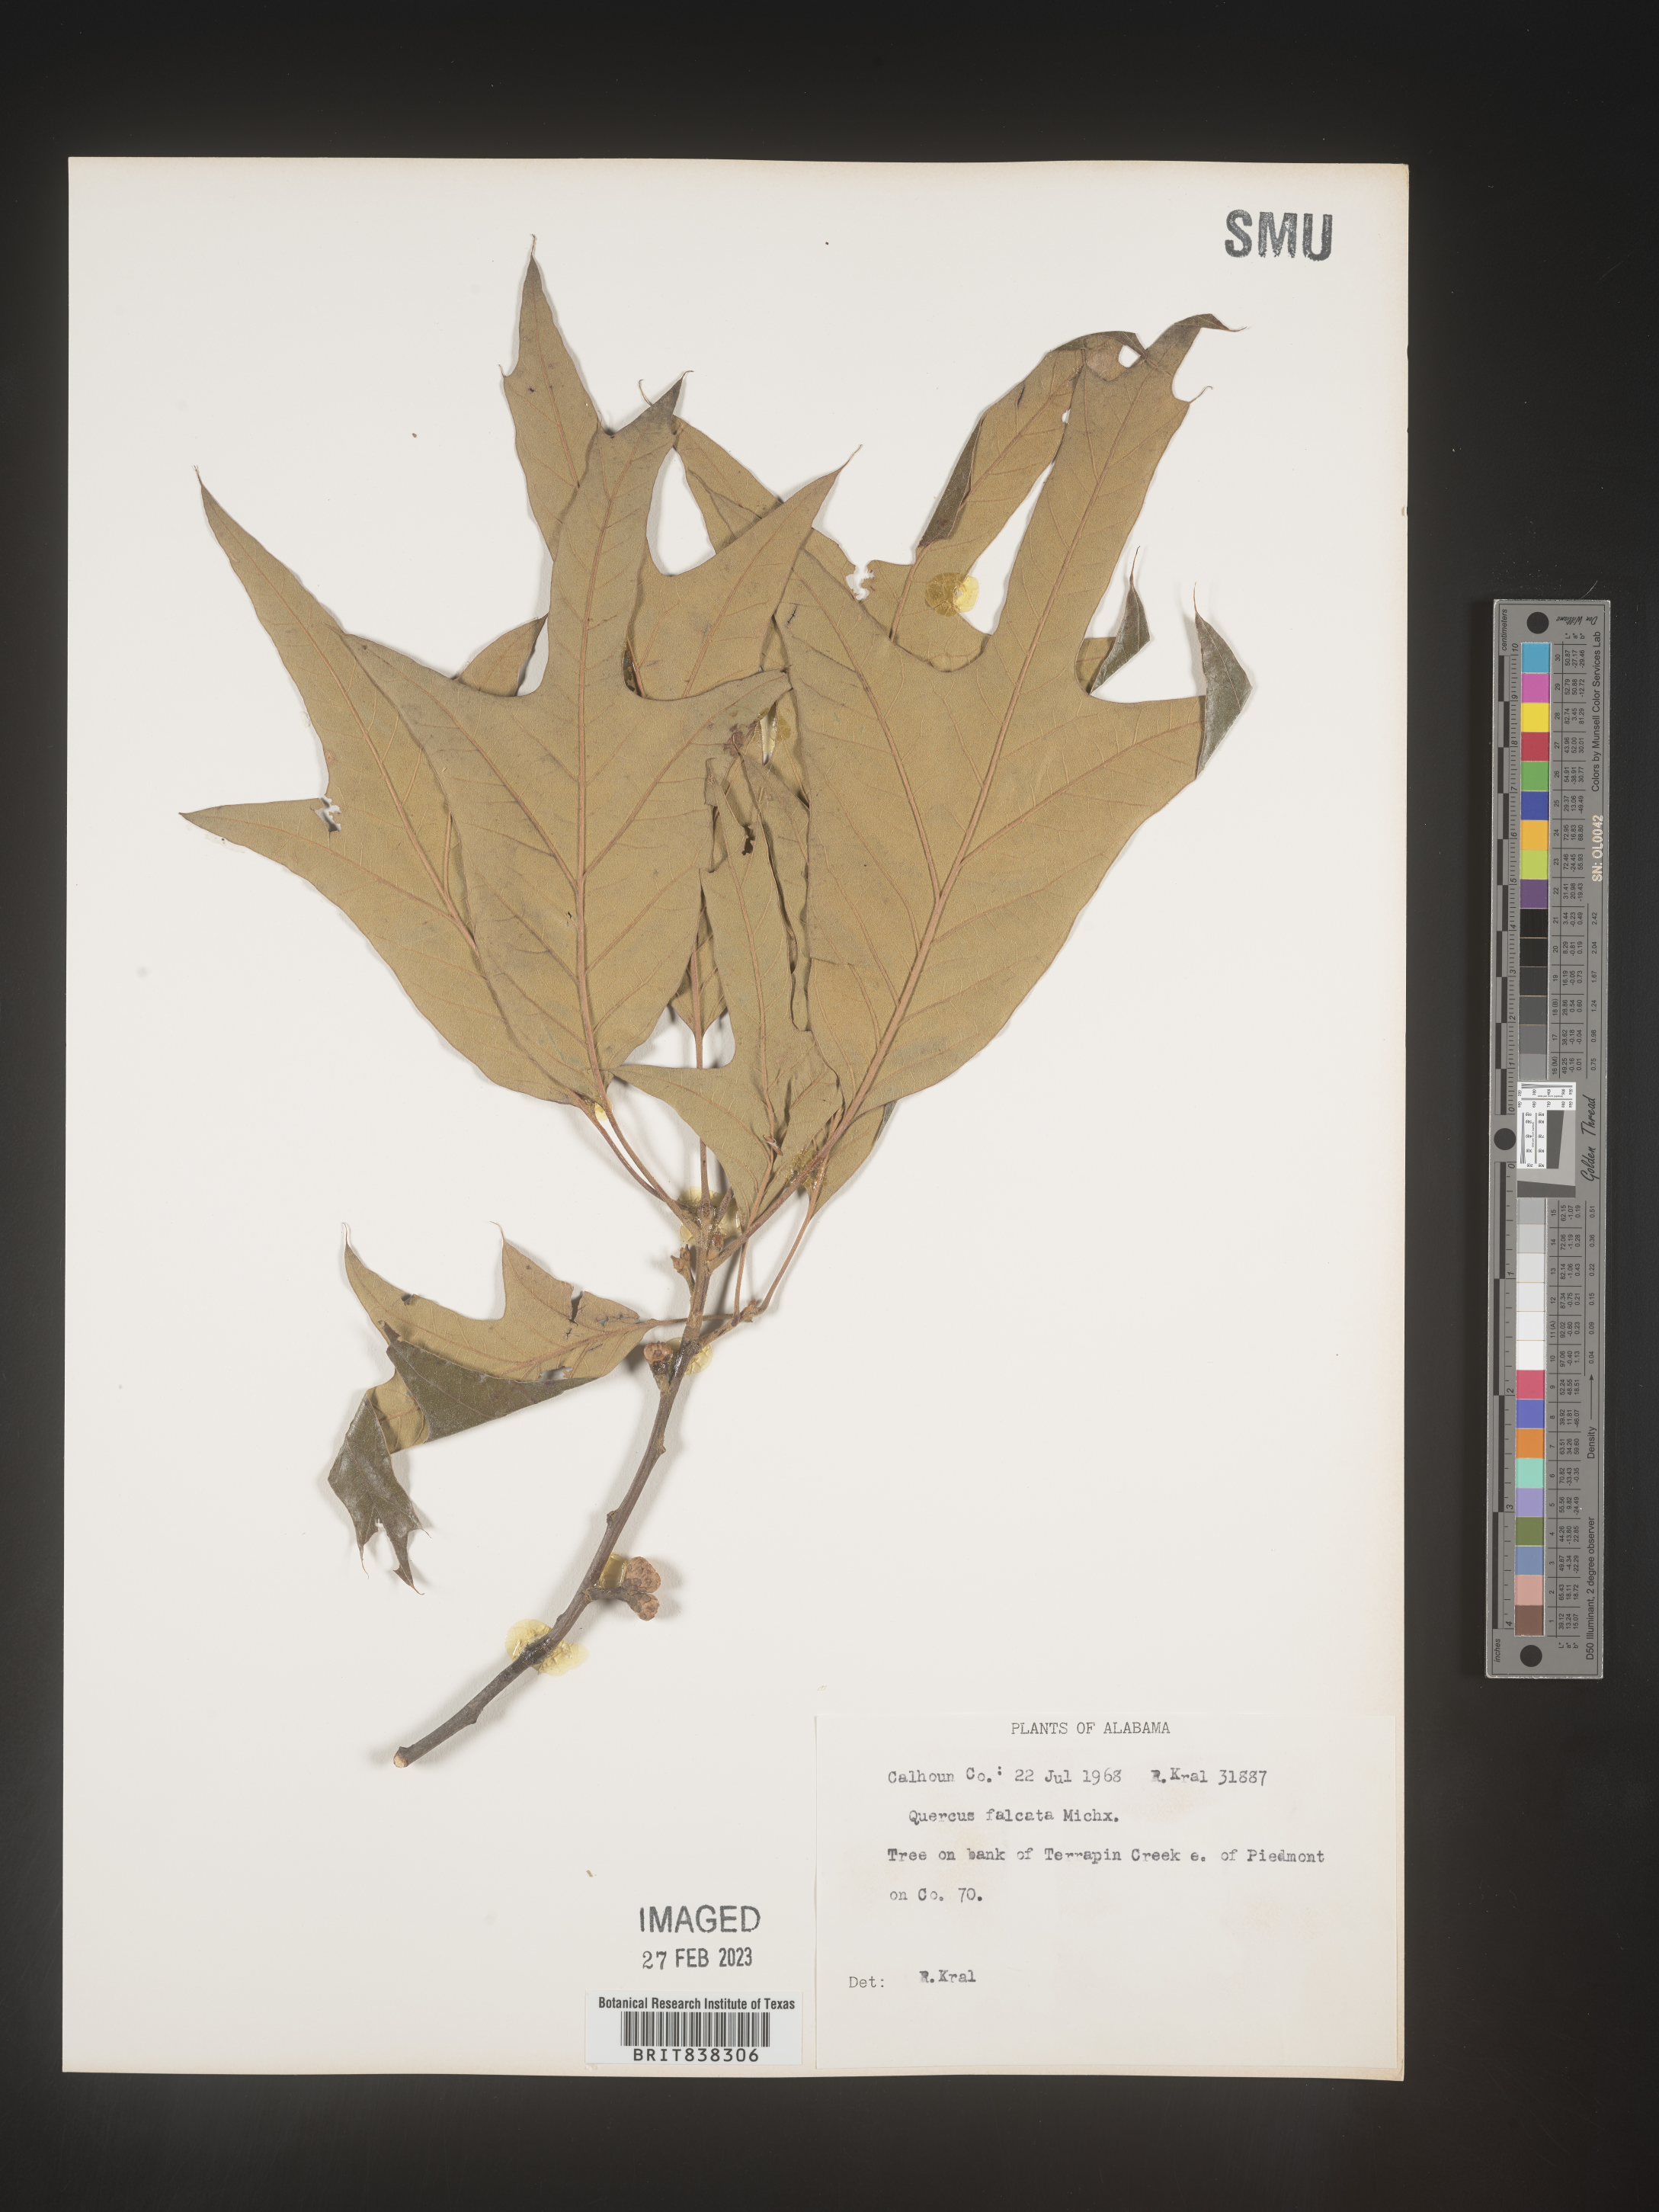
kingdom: Plantae
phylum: Tracheophyta
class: Magnoliopsida
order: Fagales
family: Fagaceae
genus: Quercus
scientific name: Quercus falcata
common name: Southern red oak
